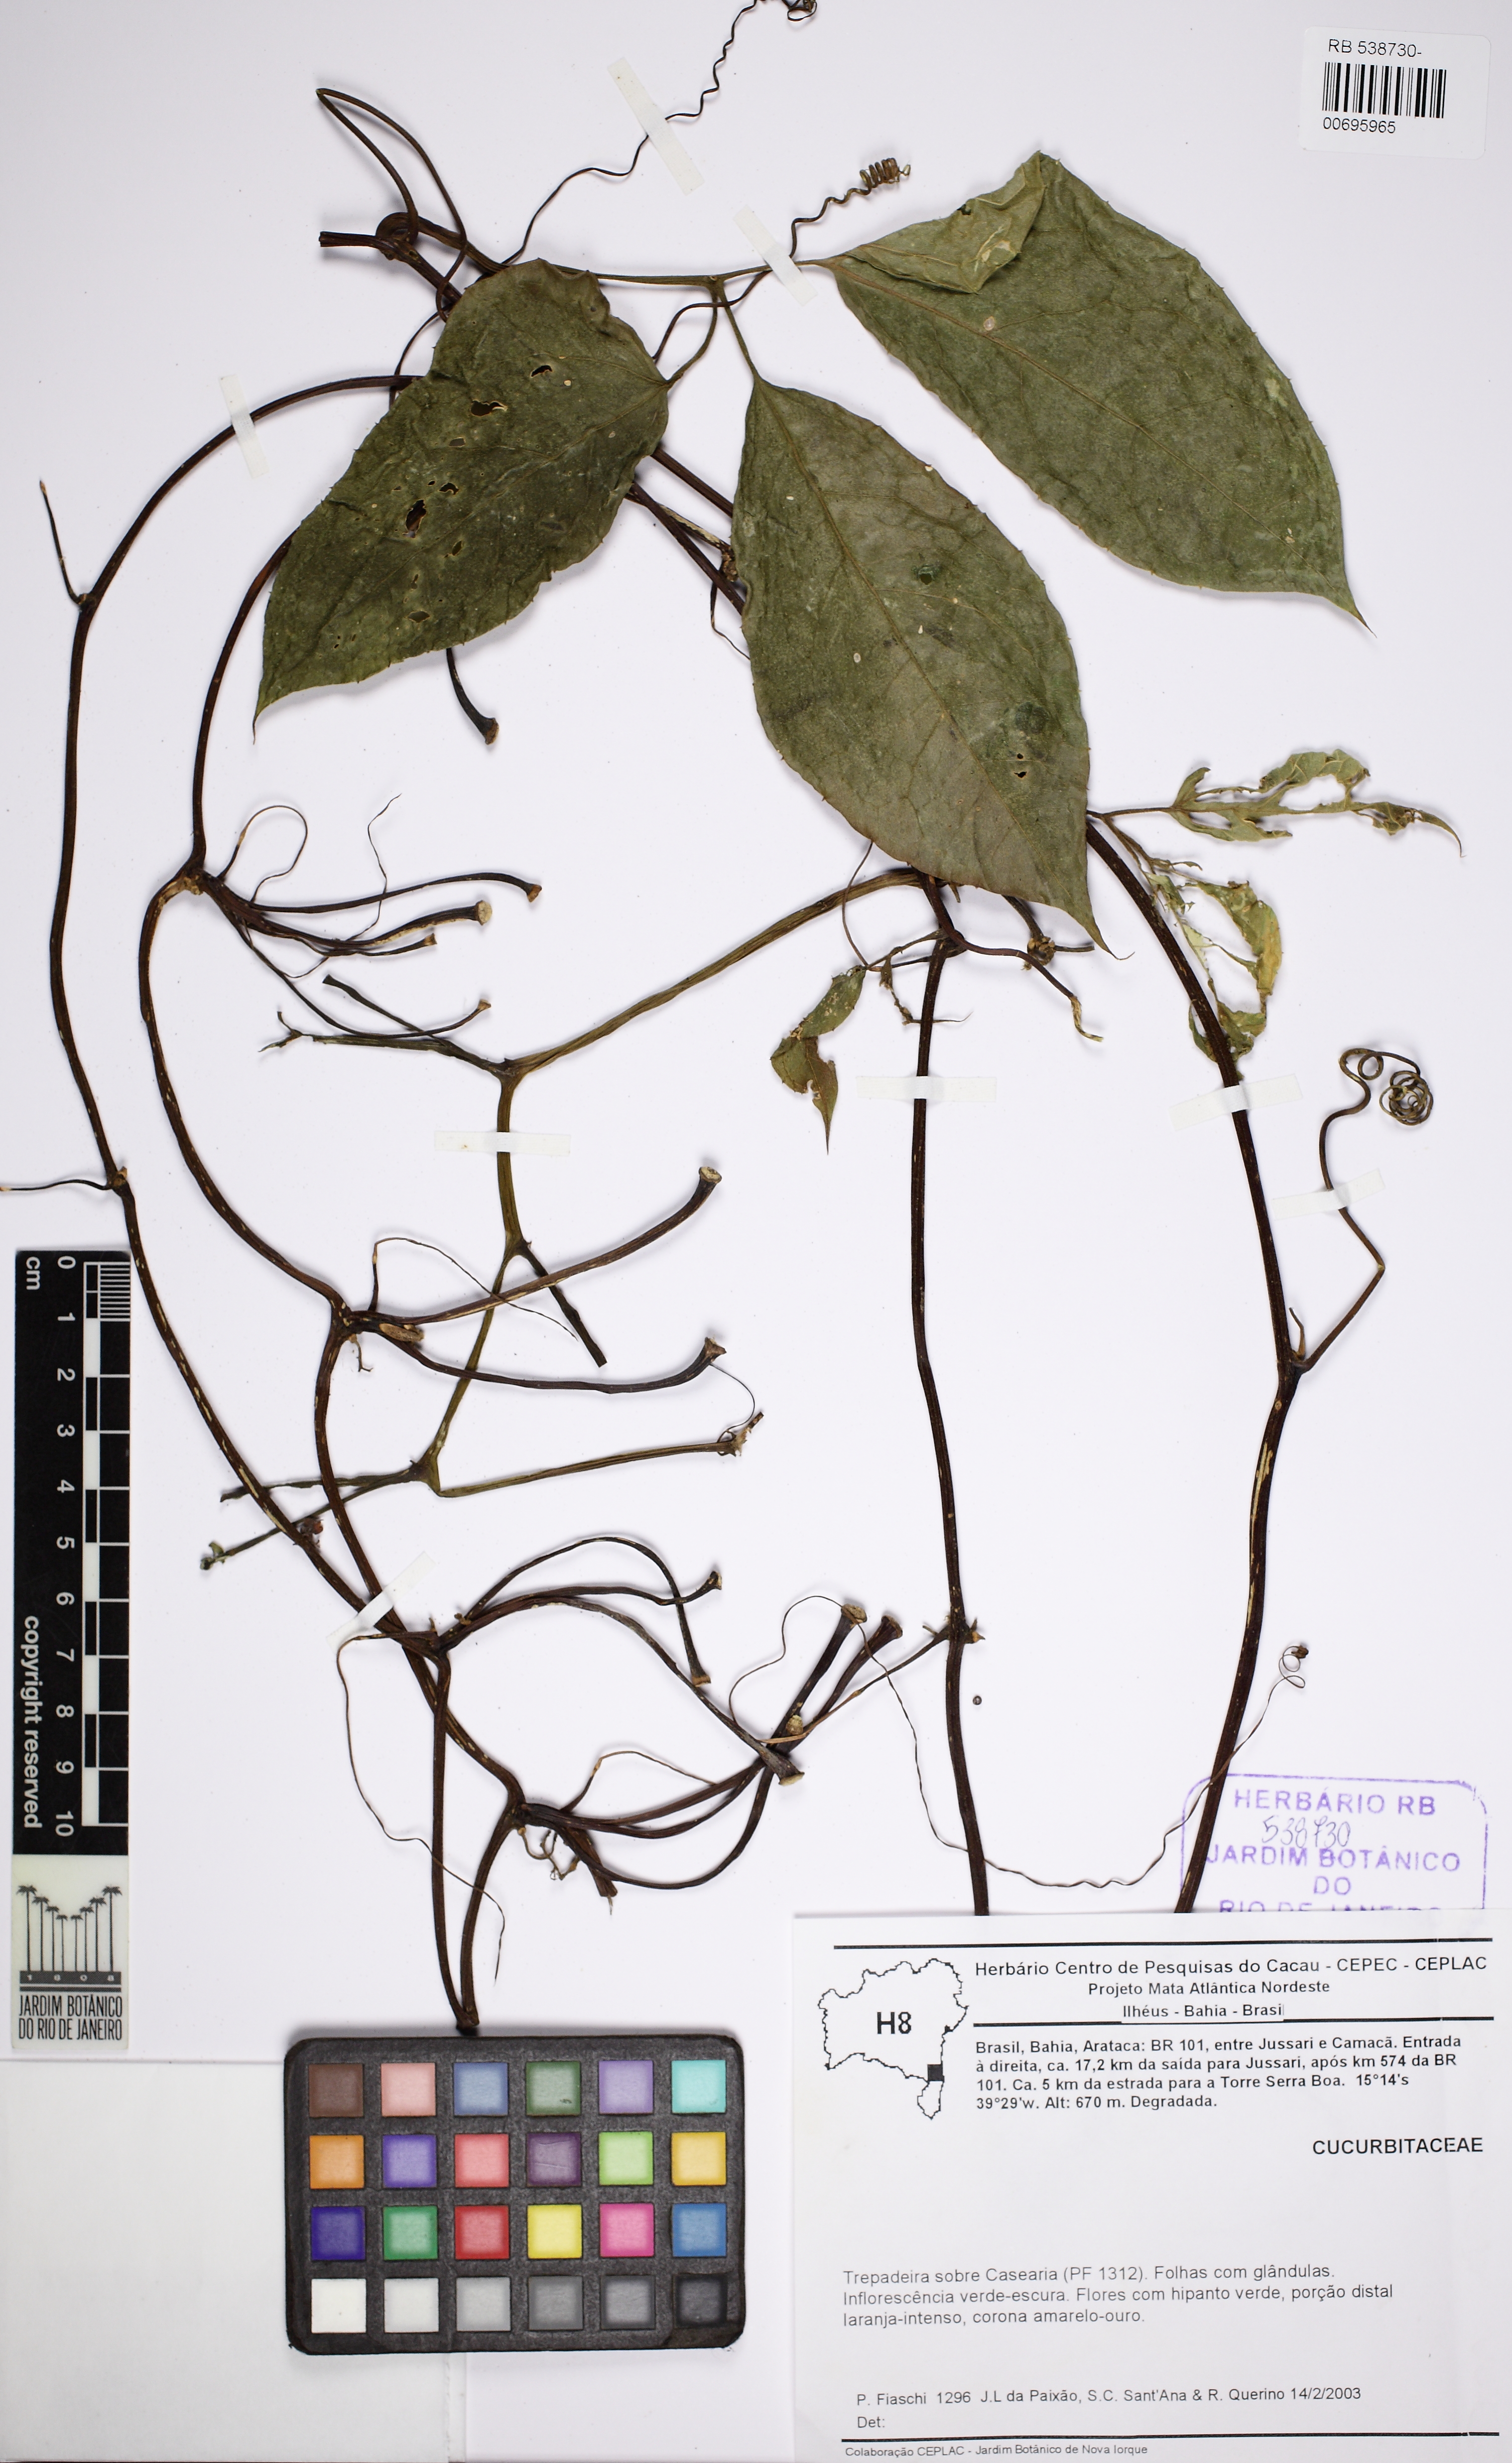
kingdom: Plantae
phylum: Tracheophyta
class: Magnoliopsida
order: Cucurbitales
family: Cucurbitaceae
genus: Gurania
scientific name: Gurania bignoniacea
